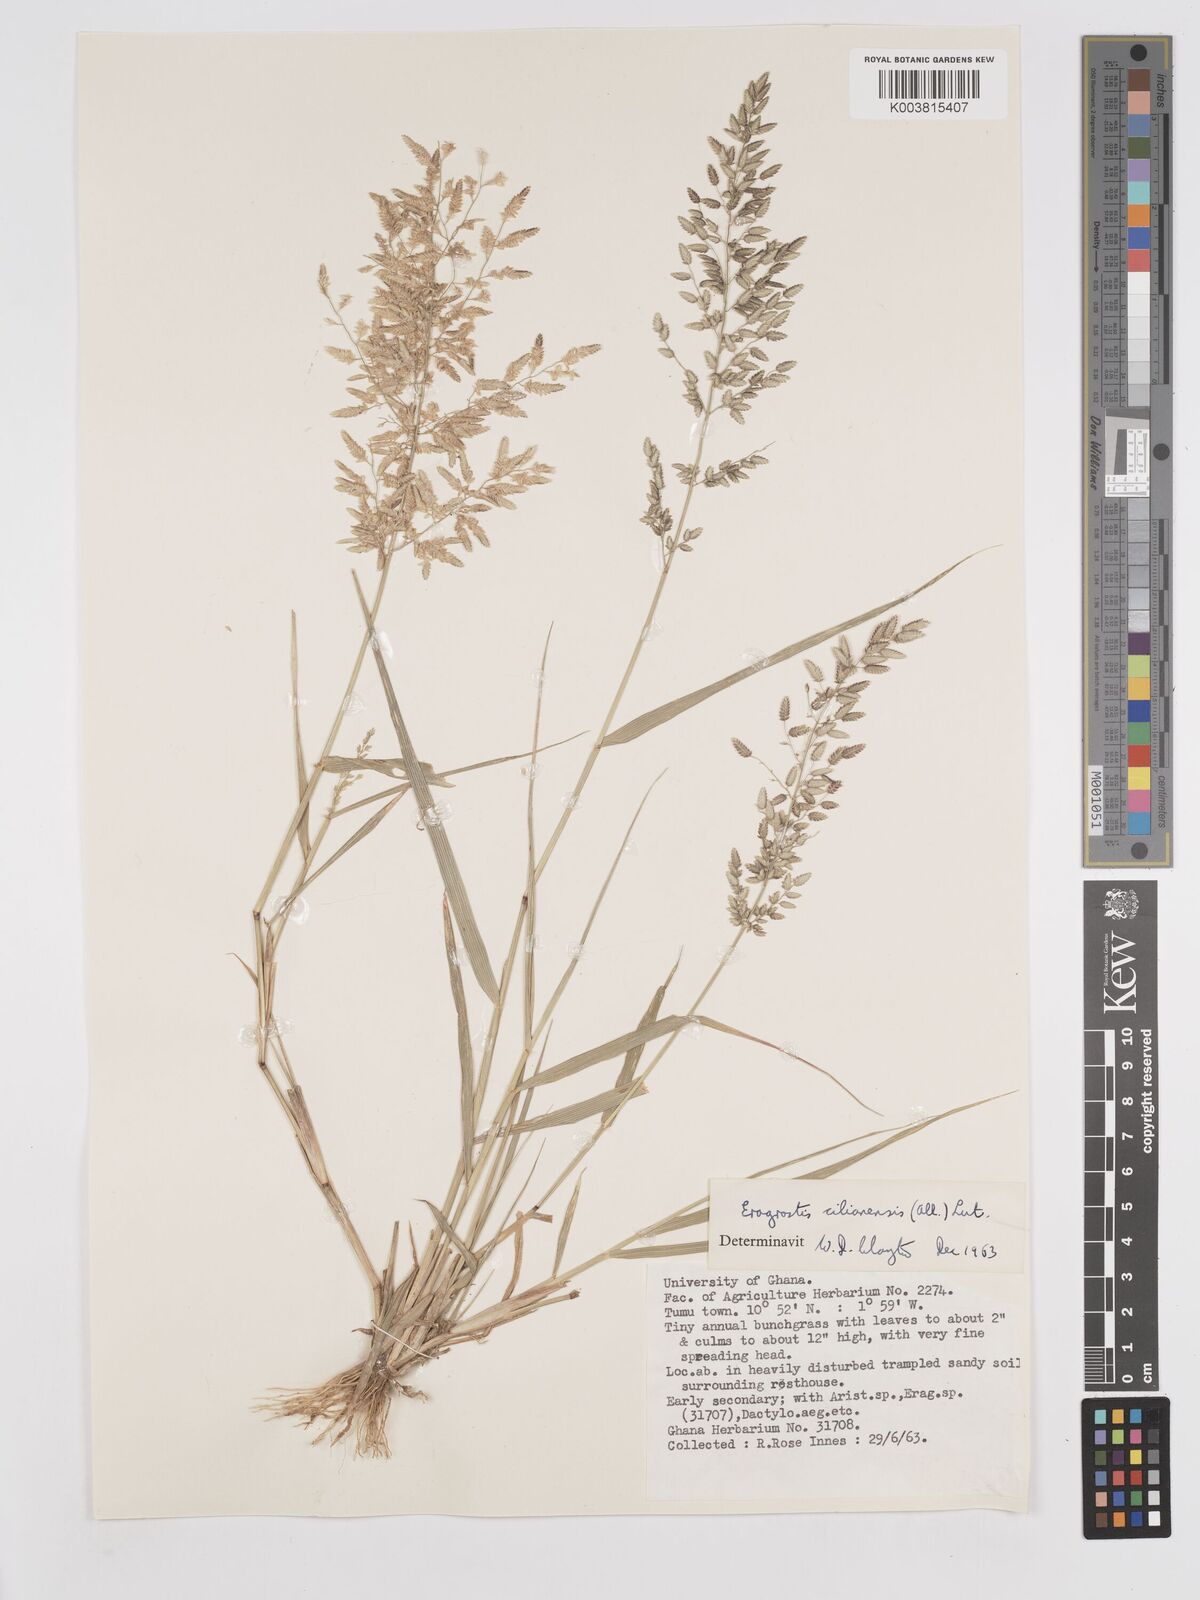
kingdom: Plantae
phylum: Tracheophyta
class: Liliopsida
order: Poales
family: Poaceae
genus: Eragrostis
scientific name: Eragrostis cilianensis
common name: Stinkgrass
